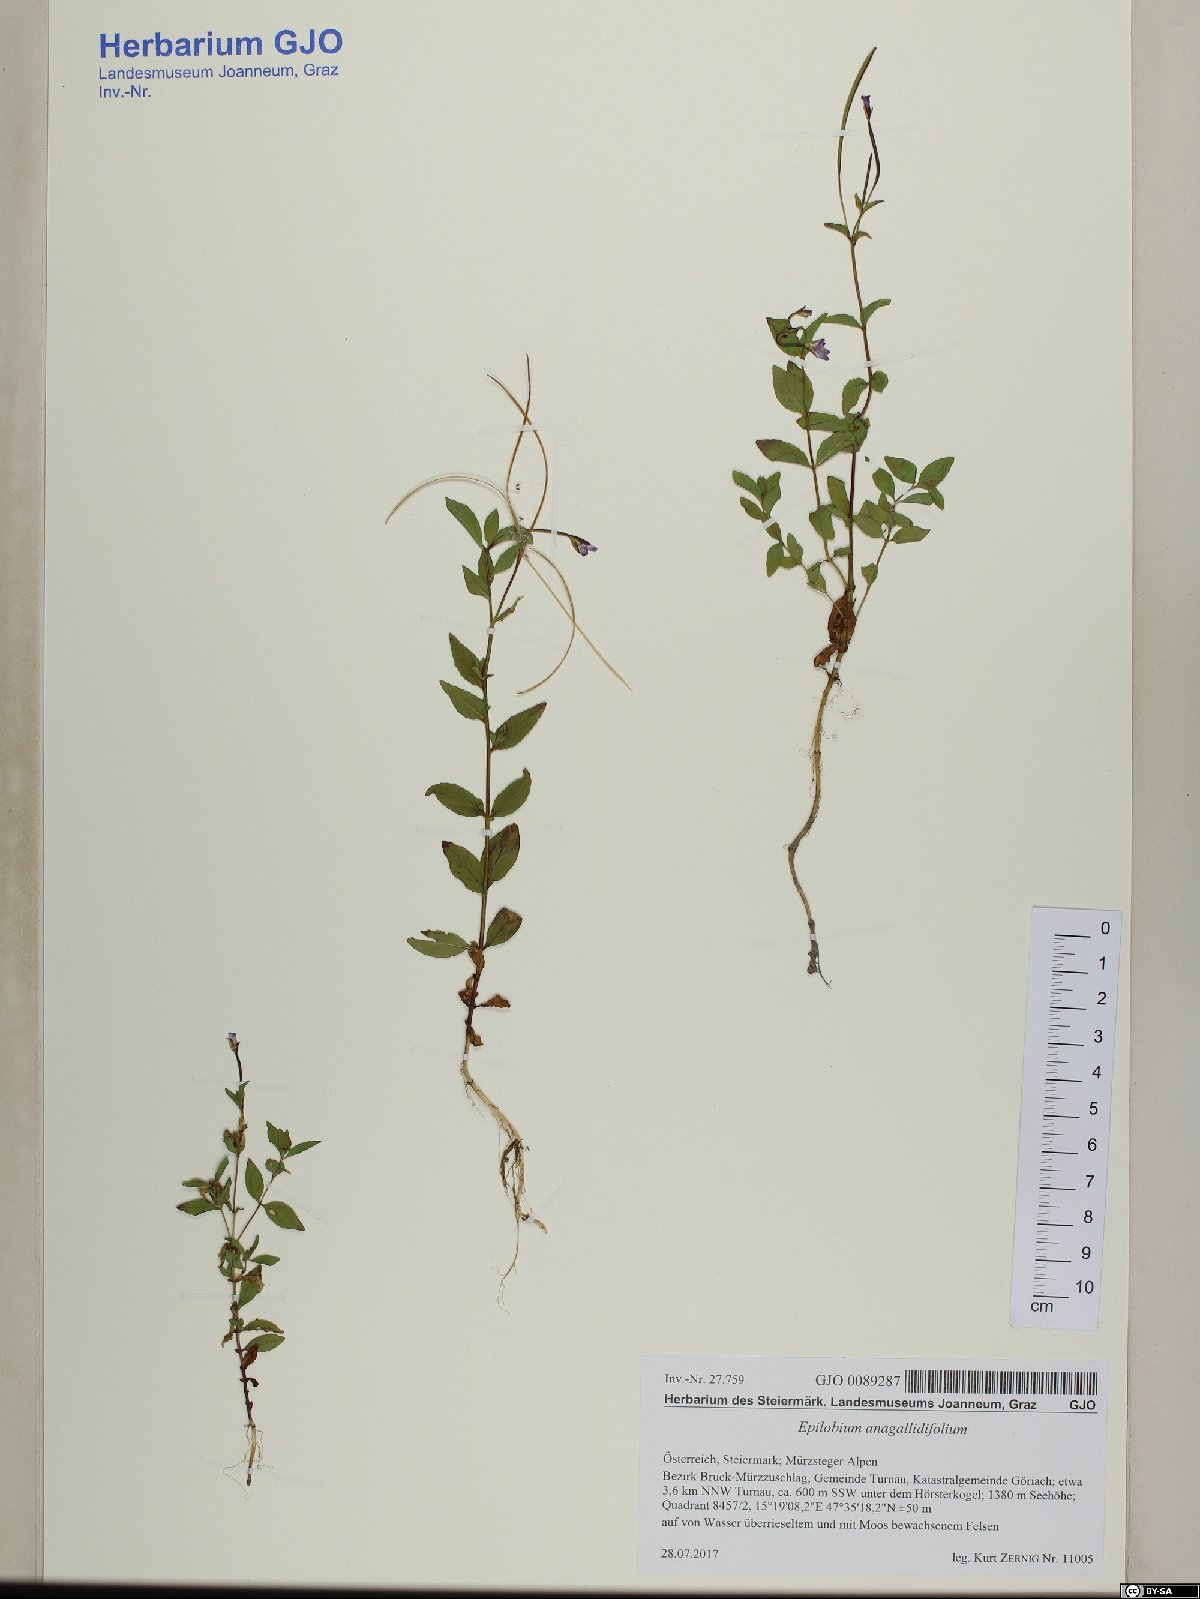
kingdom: Plantae
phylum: Tracheophyta
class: Magnoliopsida
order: Myrtales
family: Onagraceae
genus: Epilobium
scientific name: Epilobium anagallidifolium
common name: Alpine willowherb
